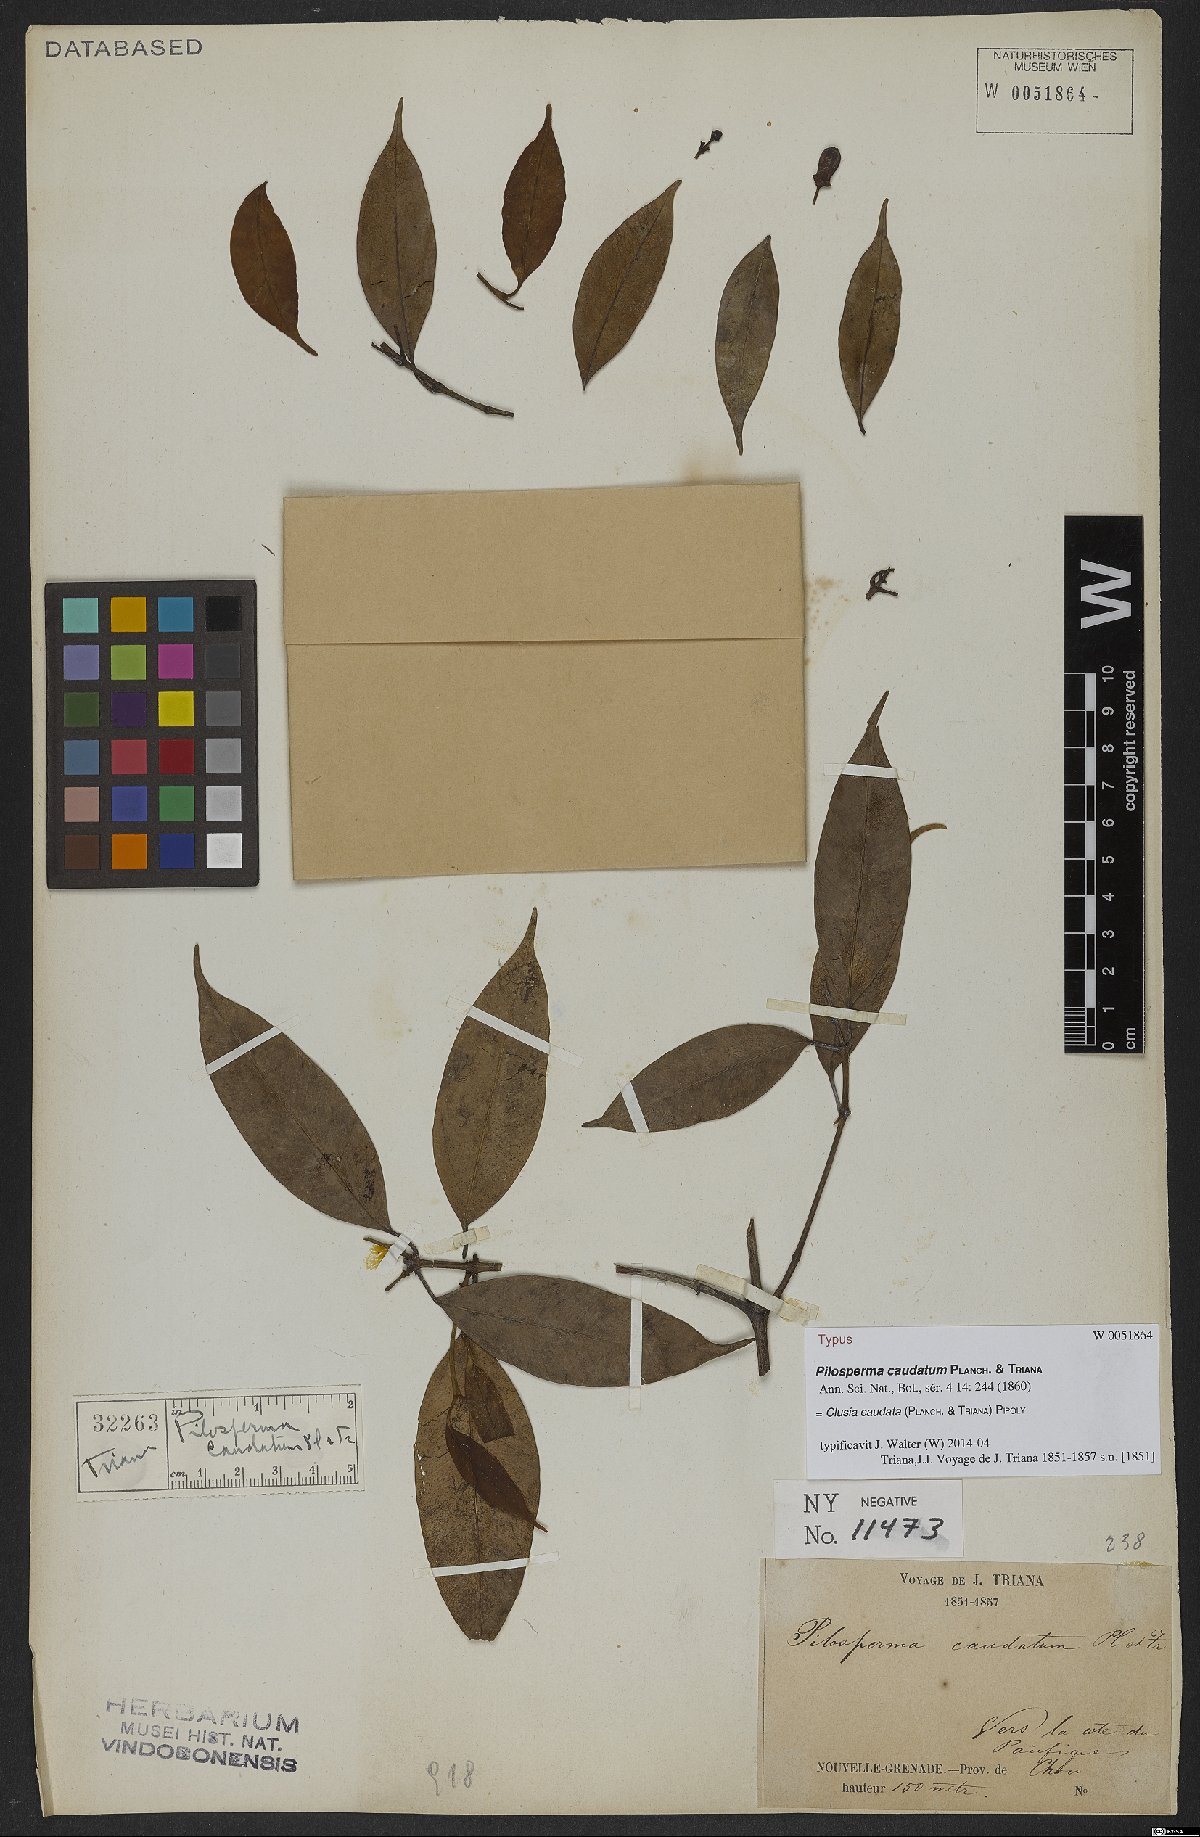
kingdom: Plantae
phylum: Tracheophyta
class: Magnoliopsida
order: Malpighiales
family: Clusiaceae
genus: Clusia
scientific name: Clusia caudata
